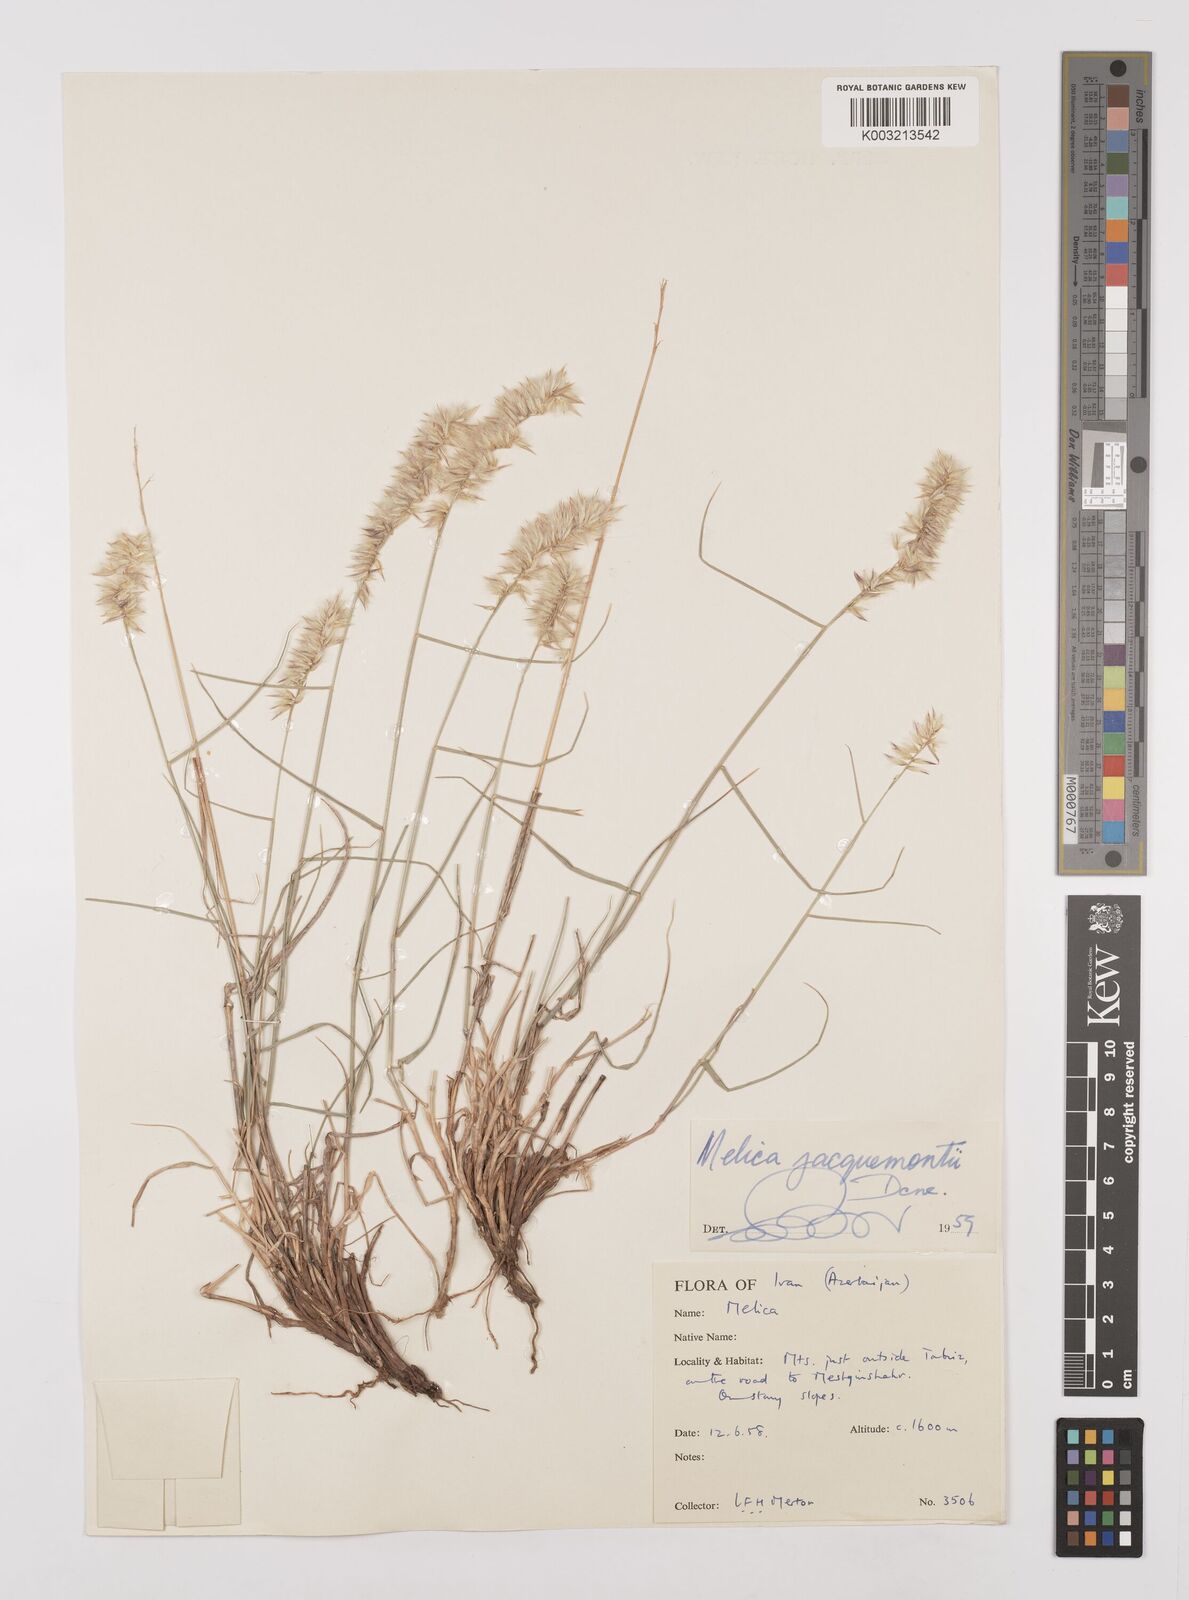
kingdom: Plantae
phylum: Tracheophyta
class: Liliopsida
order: Poales
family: Poaceae
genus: Melica
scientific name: Melica persica
